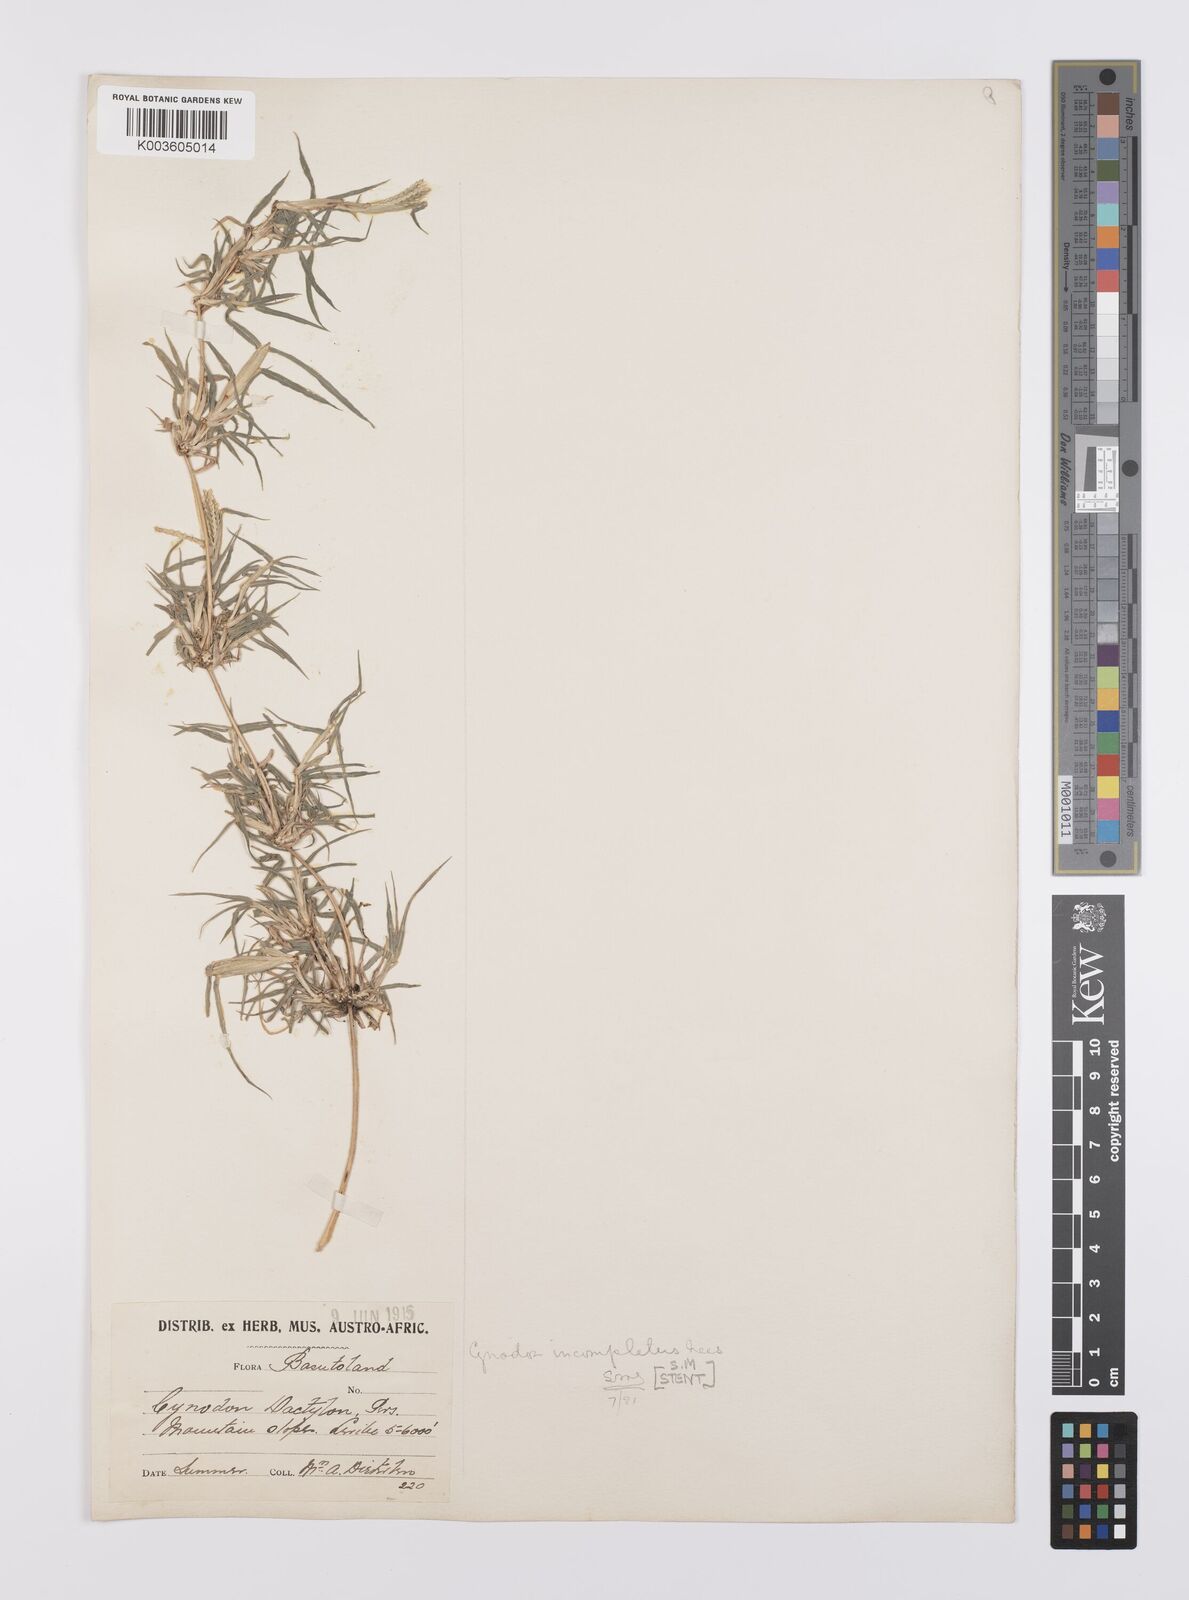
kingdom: Plantae
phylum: Tracheophyta
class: Liliopsida
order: Poales
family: Poaceae
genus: Cynodon
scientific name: Cynodon incompletus
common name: African bermuda-grass
